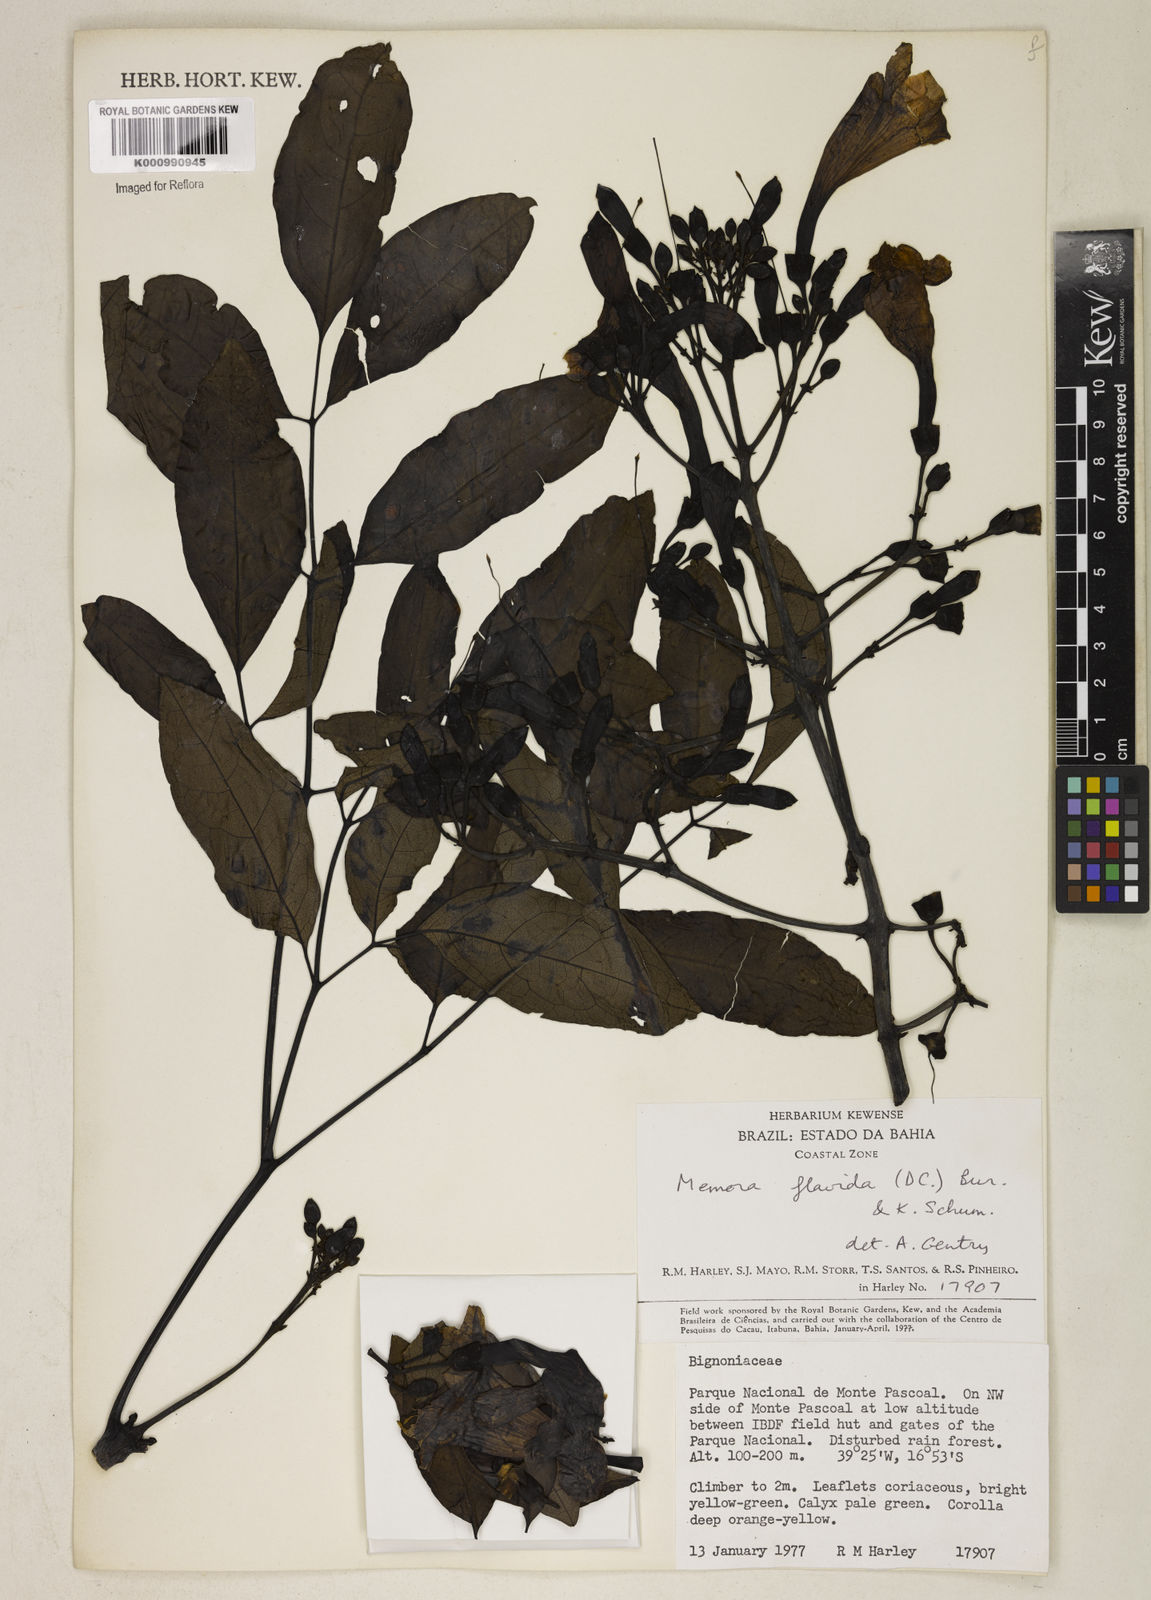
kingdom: Plantae
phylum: Tracheophyta
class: Magnoliopsida
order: Lamiales
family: Bignoniaceae
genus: Adenocalymma
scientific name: Adenocalymma neoflavidum
